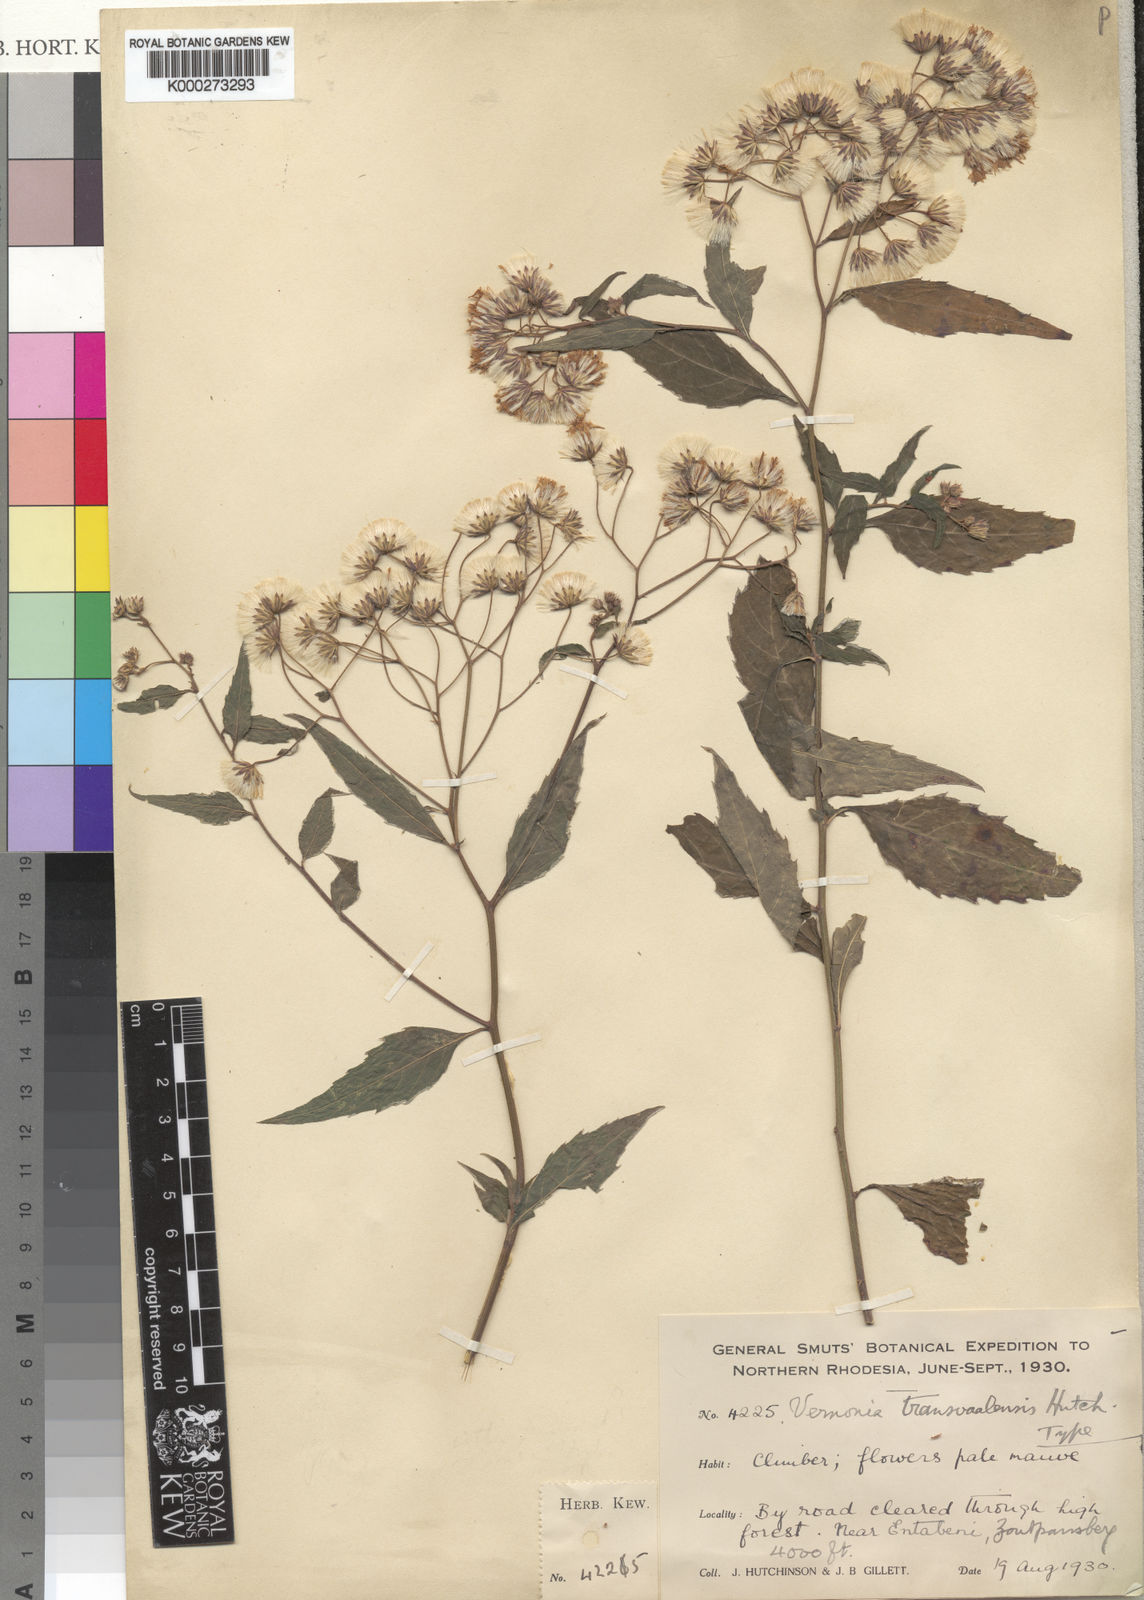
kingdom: Plantae
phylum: Tracheophyta
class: Magnoliopsida
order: Asterales
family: Asteraceae
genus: Cyanthillium
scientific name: Cyanthillium wollastonii
